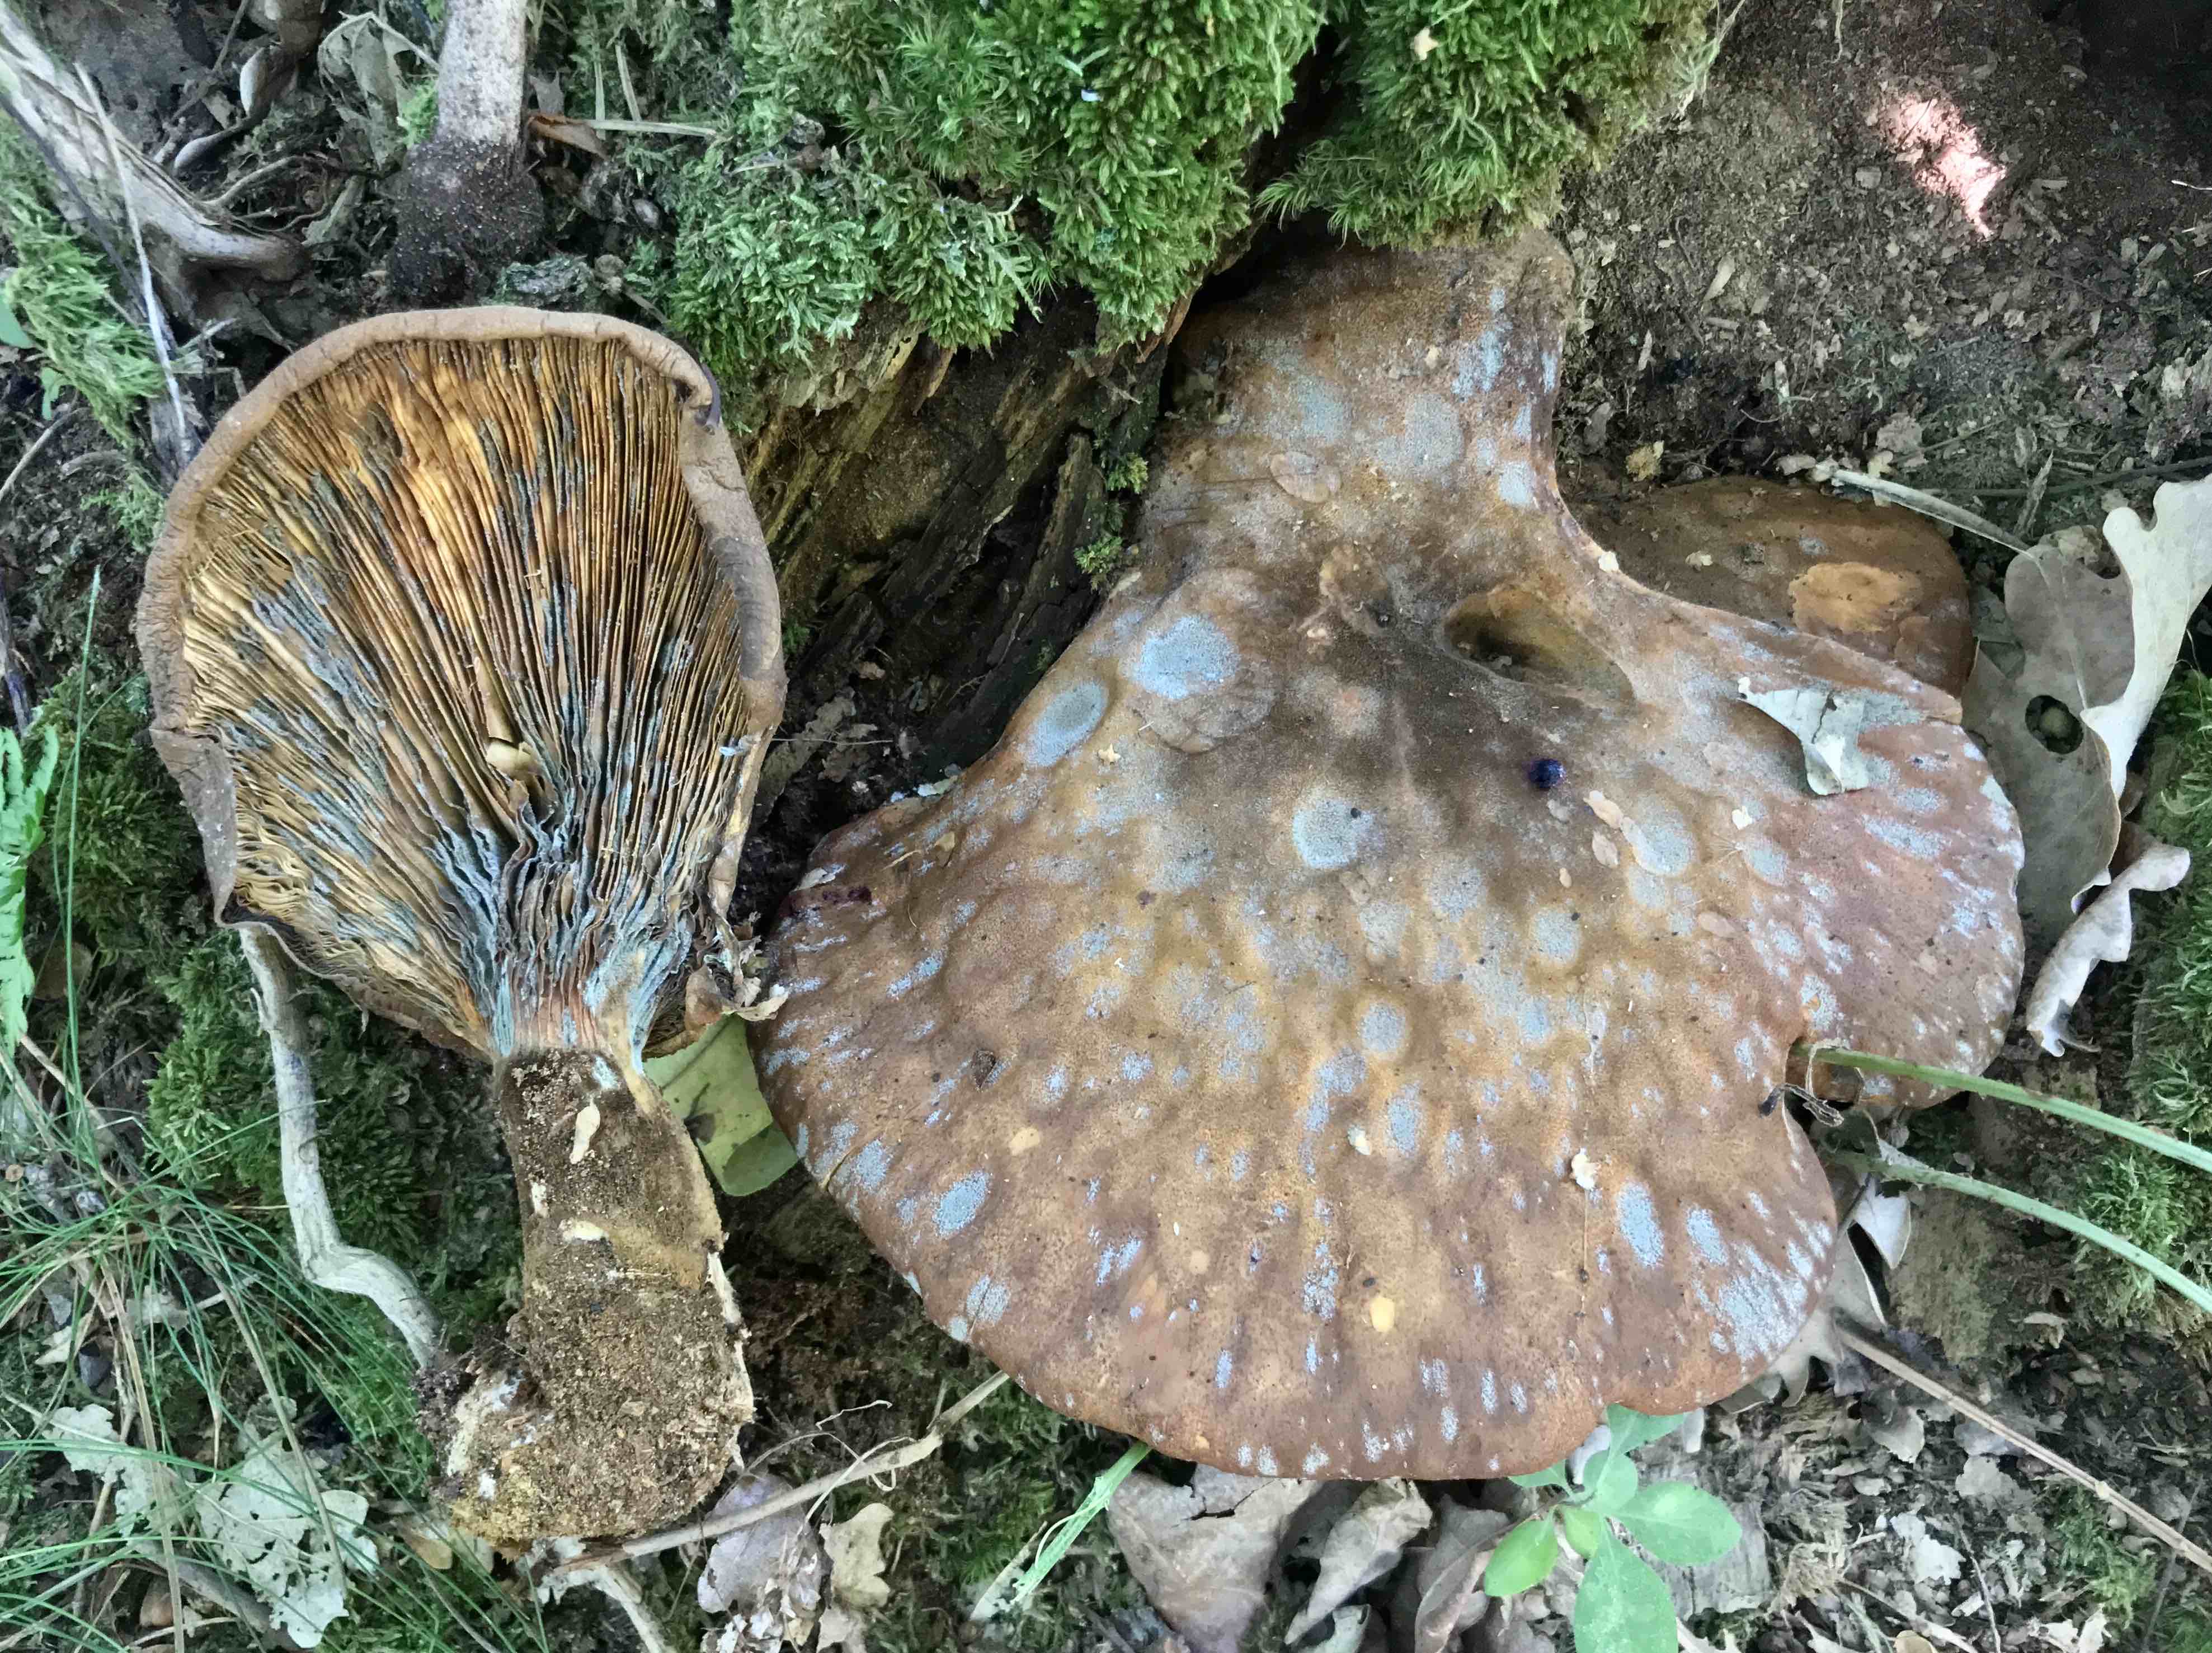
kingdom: Fungi
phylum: Basidiomycota
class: Agaricomycetes
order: Boletales
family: Tapinellaceae
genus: Tapinella
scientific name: Tapinella atrotomentosa
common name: sortfiltet viftesvamp
